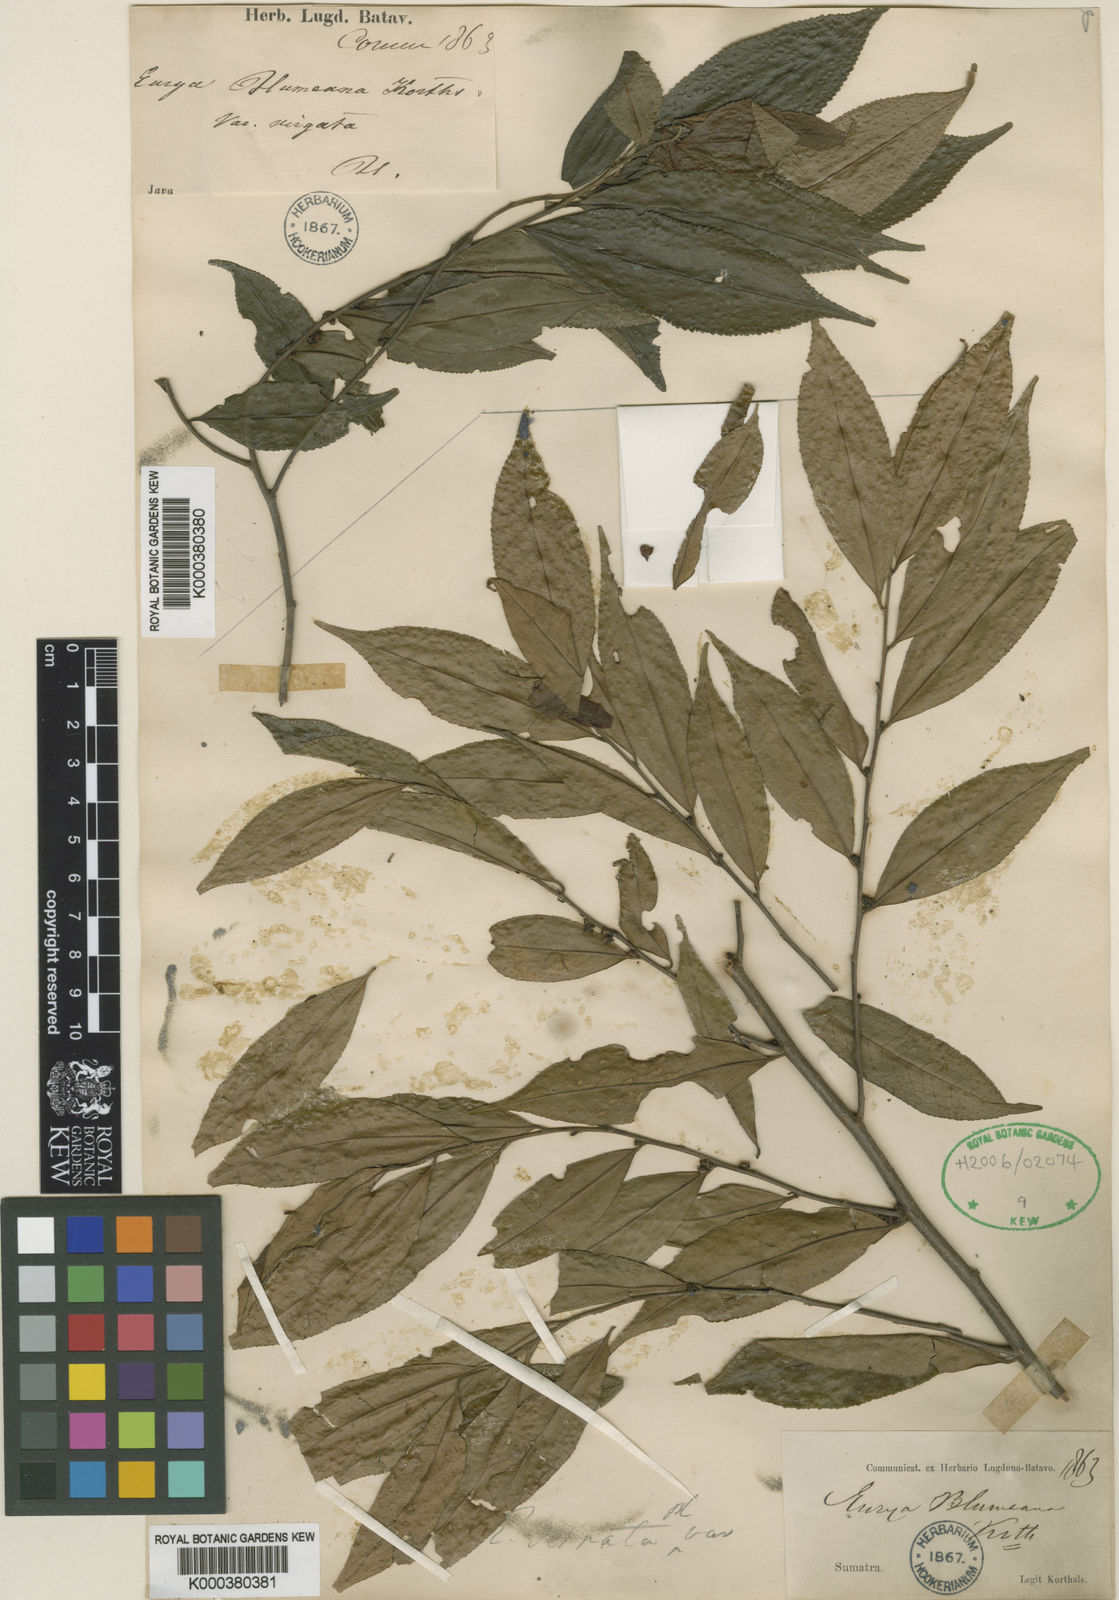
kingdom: Plantae
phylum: Tracheophyta
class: Magnoliopsida
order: Ericales
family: Pentaphylacaceae
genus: Eurya
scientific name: Eurya acuminata
